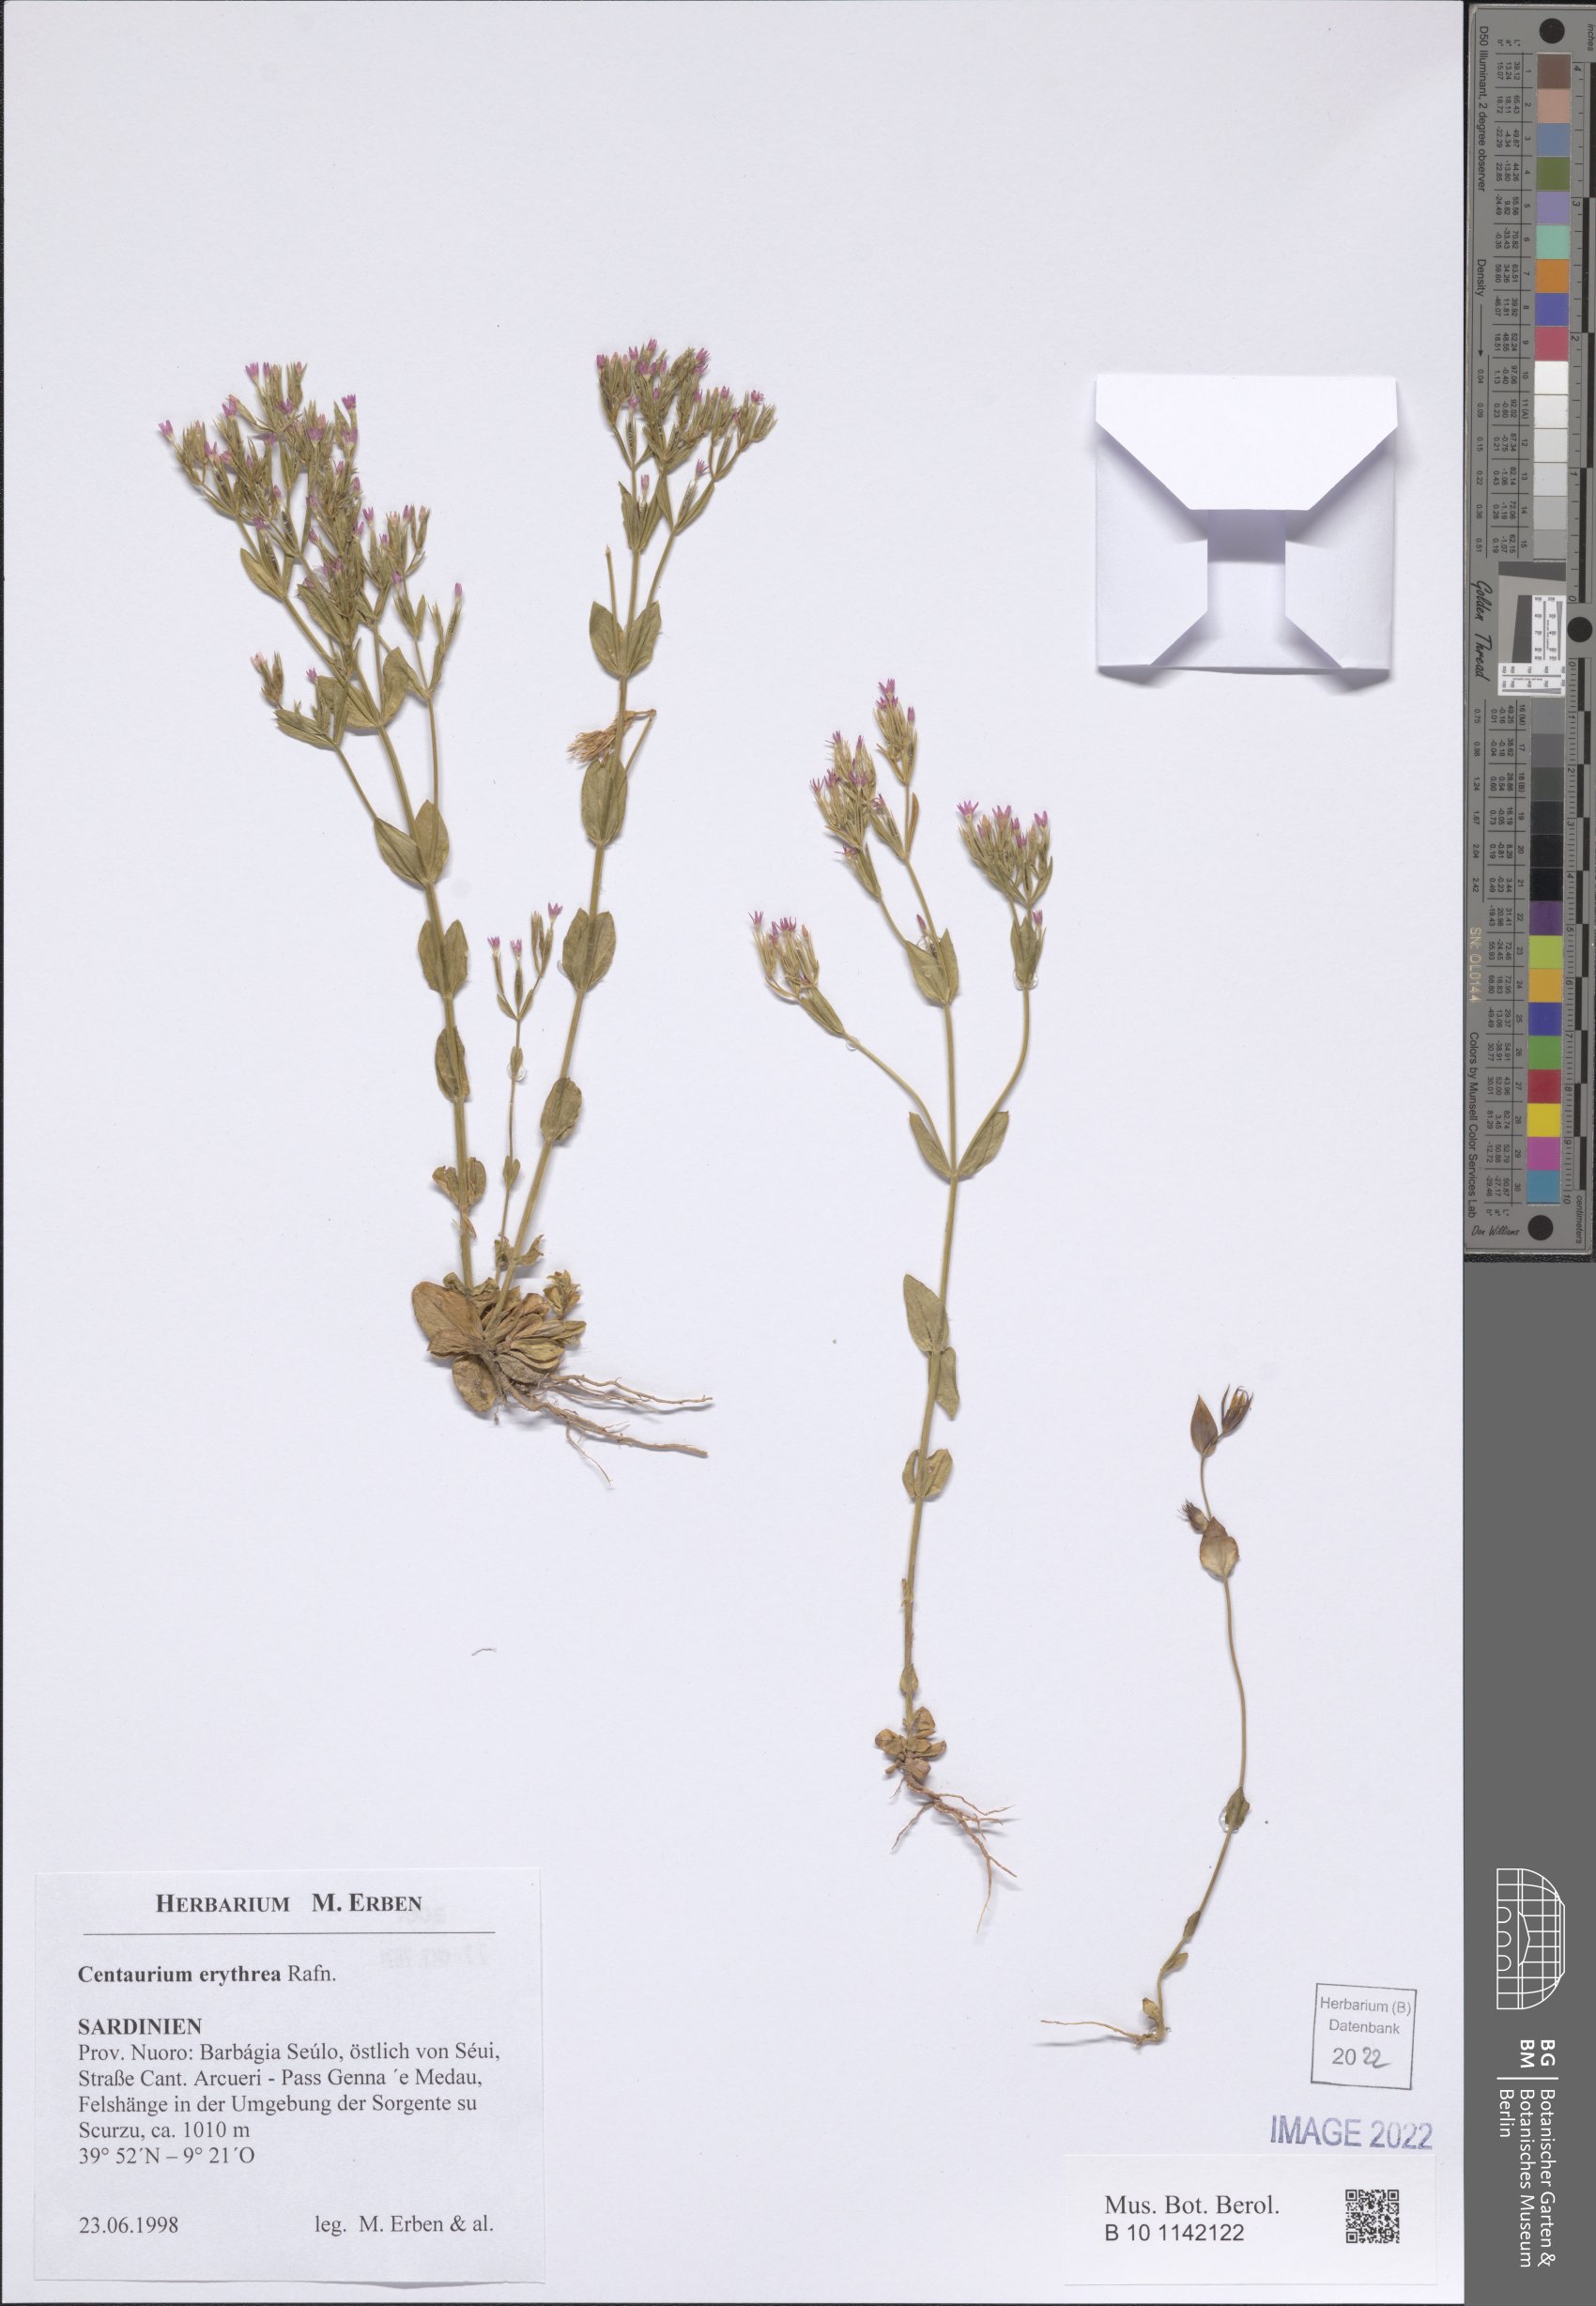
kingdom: Plantae
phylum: Tracheophyta
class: Magnoliopsida
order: Gentianales
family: Gentianaceae
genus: Centaurium
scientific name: Centaurium erythraea
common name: Common centaury
